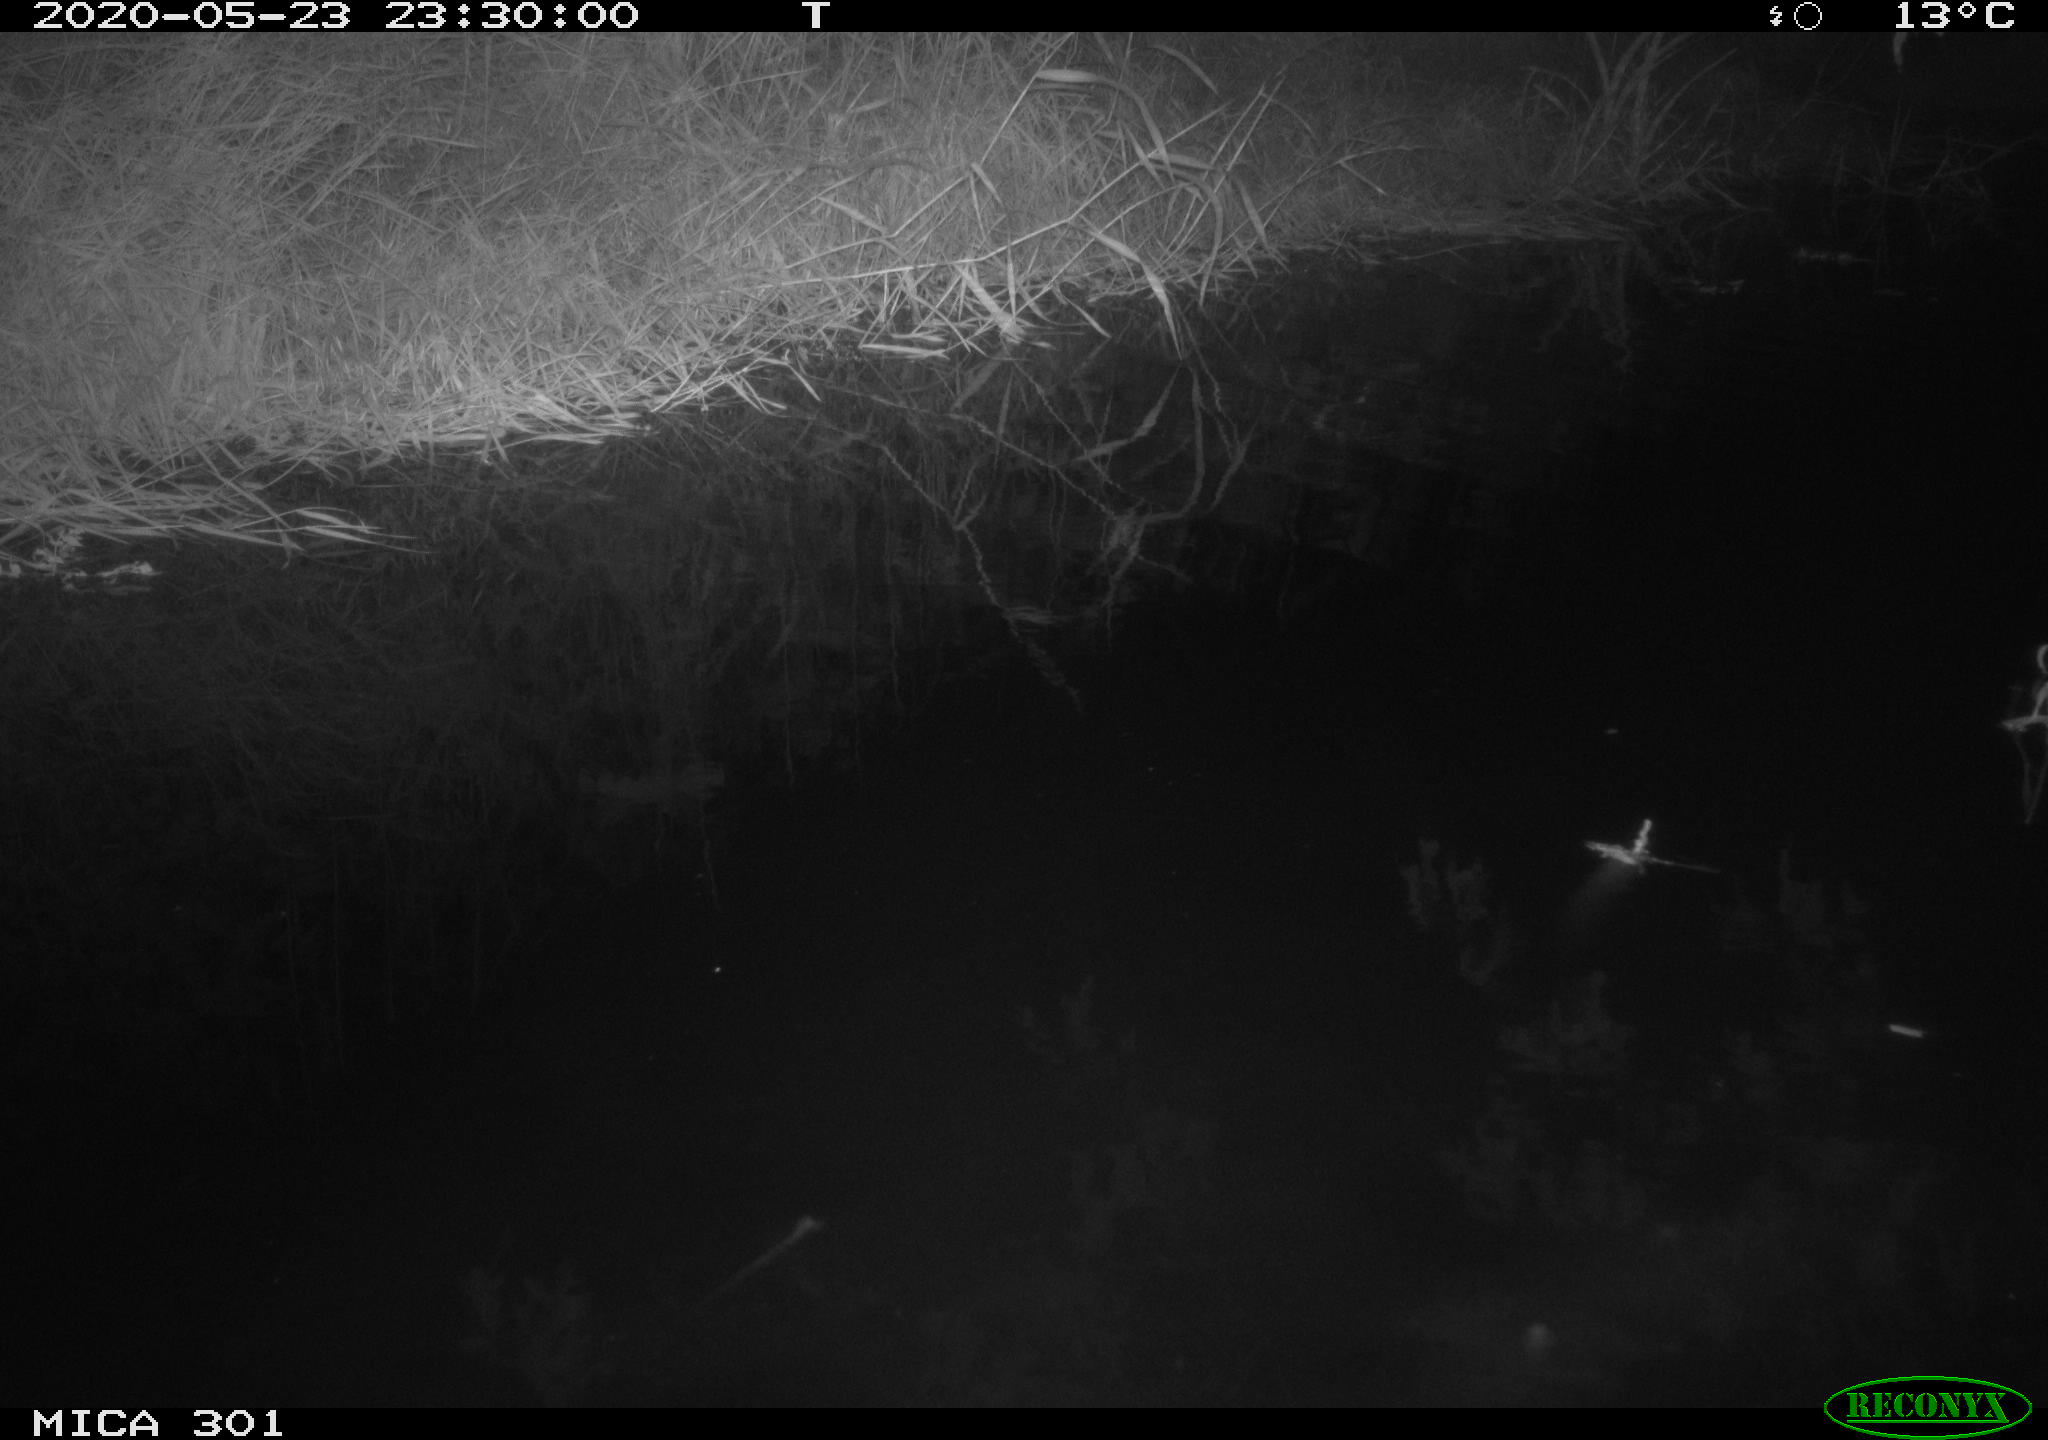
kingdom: Animalia
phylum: Chordata
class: Mammalia
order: Rodentia
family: Castoridae
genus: Castor
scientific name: Castor fiber
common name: Eurasian beaver
